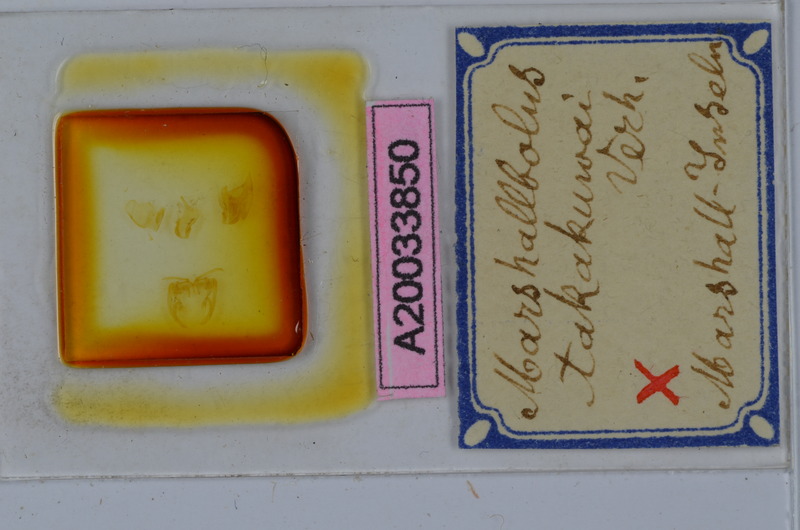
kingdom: Animalia
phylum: Arthropoda
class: Diplopoda
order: Spirobolida
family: Pachybolidae
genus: Trigoniulus
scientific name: Trigoniulus corallinus
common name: Millipede
